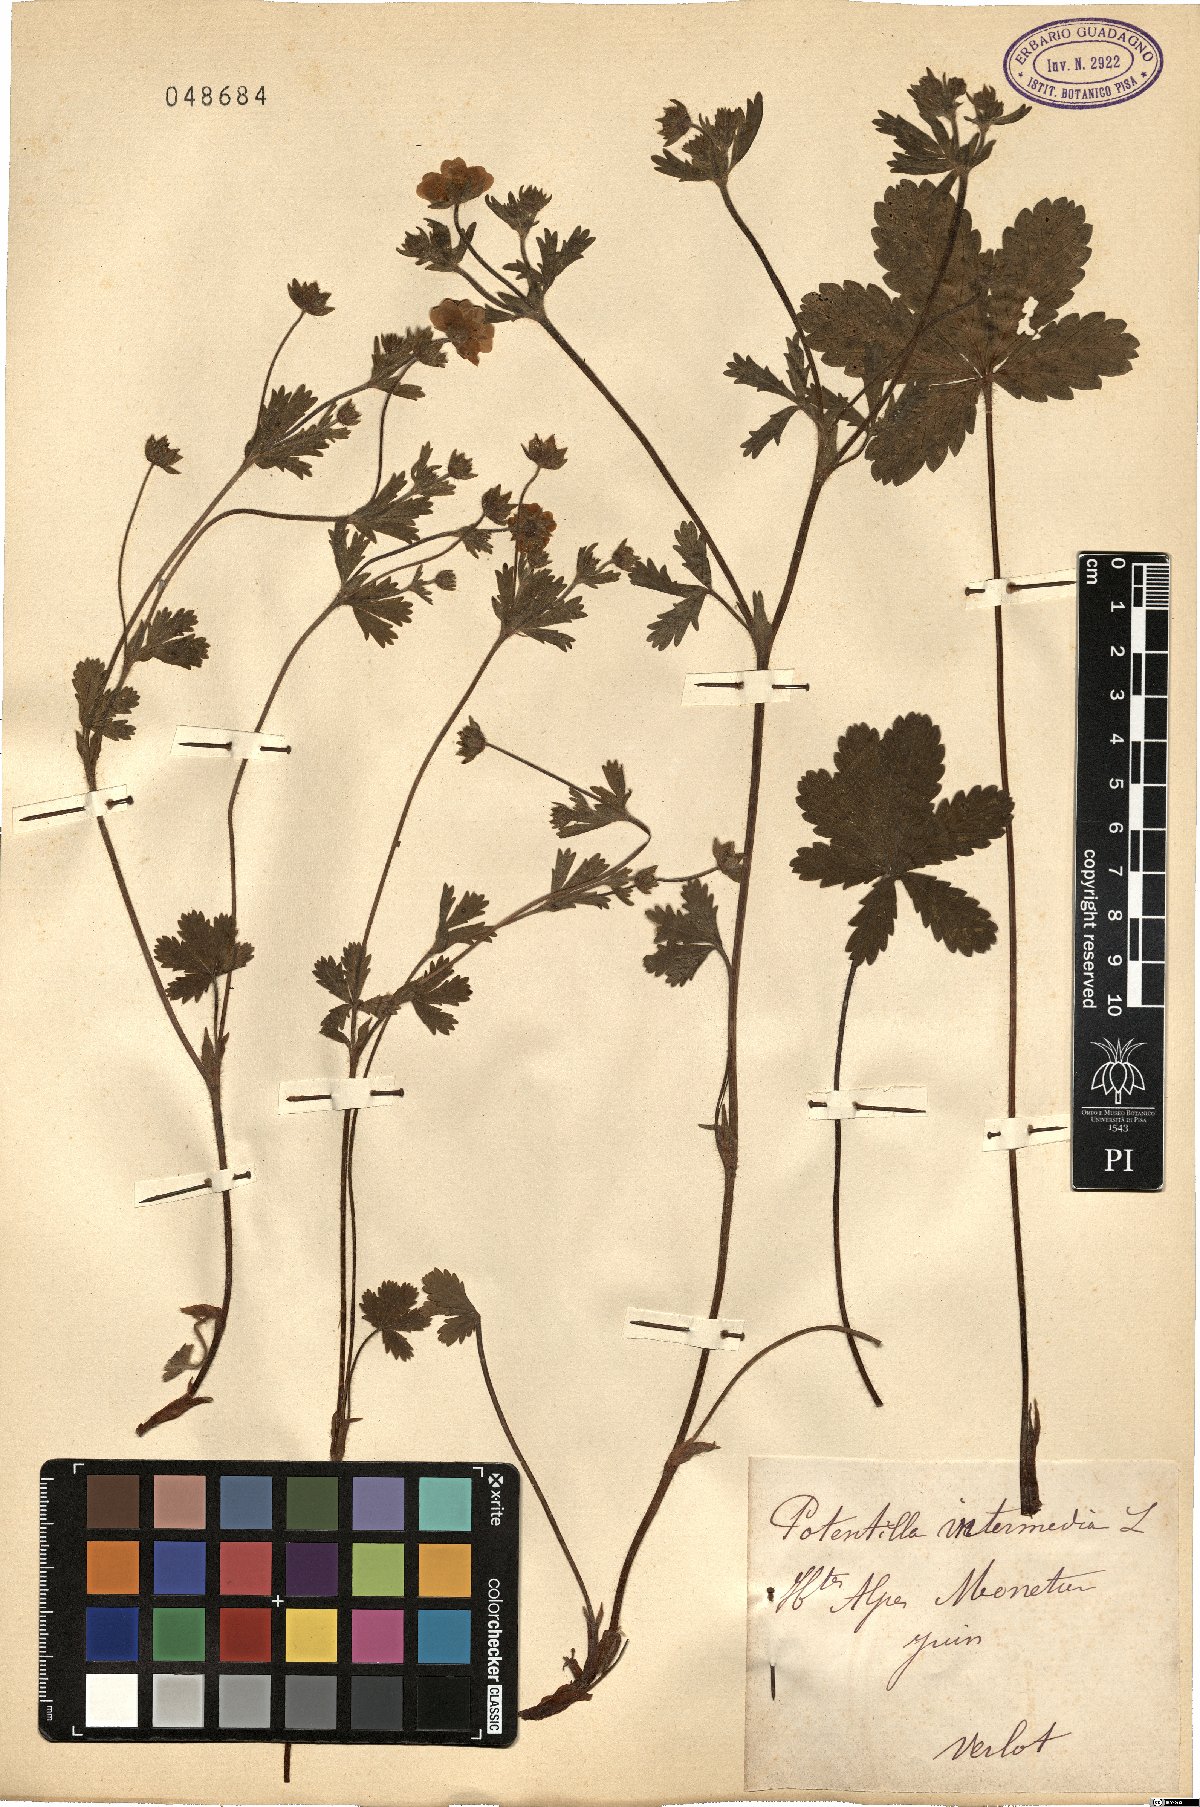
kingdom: Plantae
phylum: Tracheophyta
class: Magnoliopsida
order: Rosales
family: Rosaceae
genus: Potentilla
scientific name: Potentilla intermedia
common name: Downy cinquefoil
